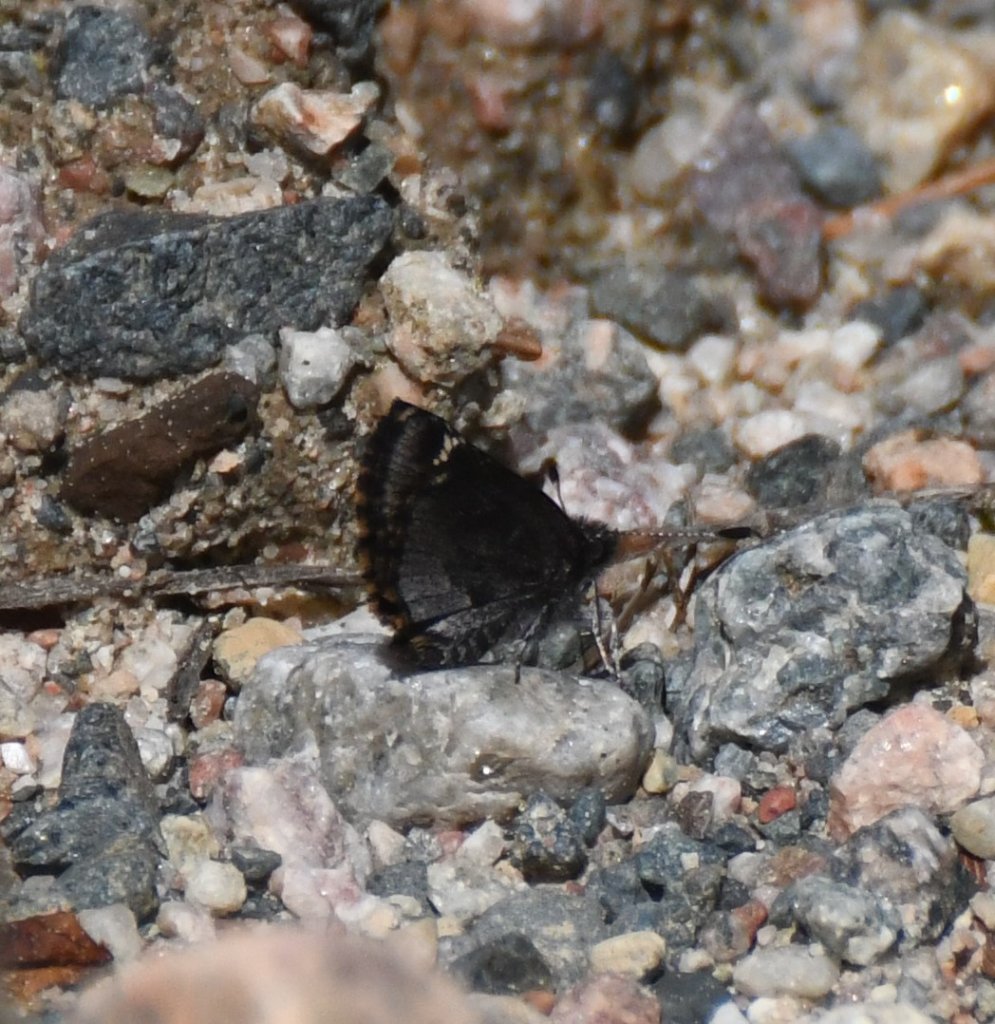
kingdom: Animalia
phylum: Arthropoda
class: Insecta
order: Lepidoptera
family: Hesperiidae
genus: Mastor
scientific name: Mastor vialis
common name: Common Roadside-Skipper
